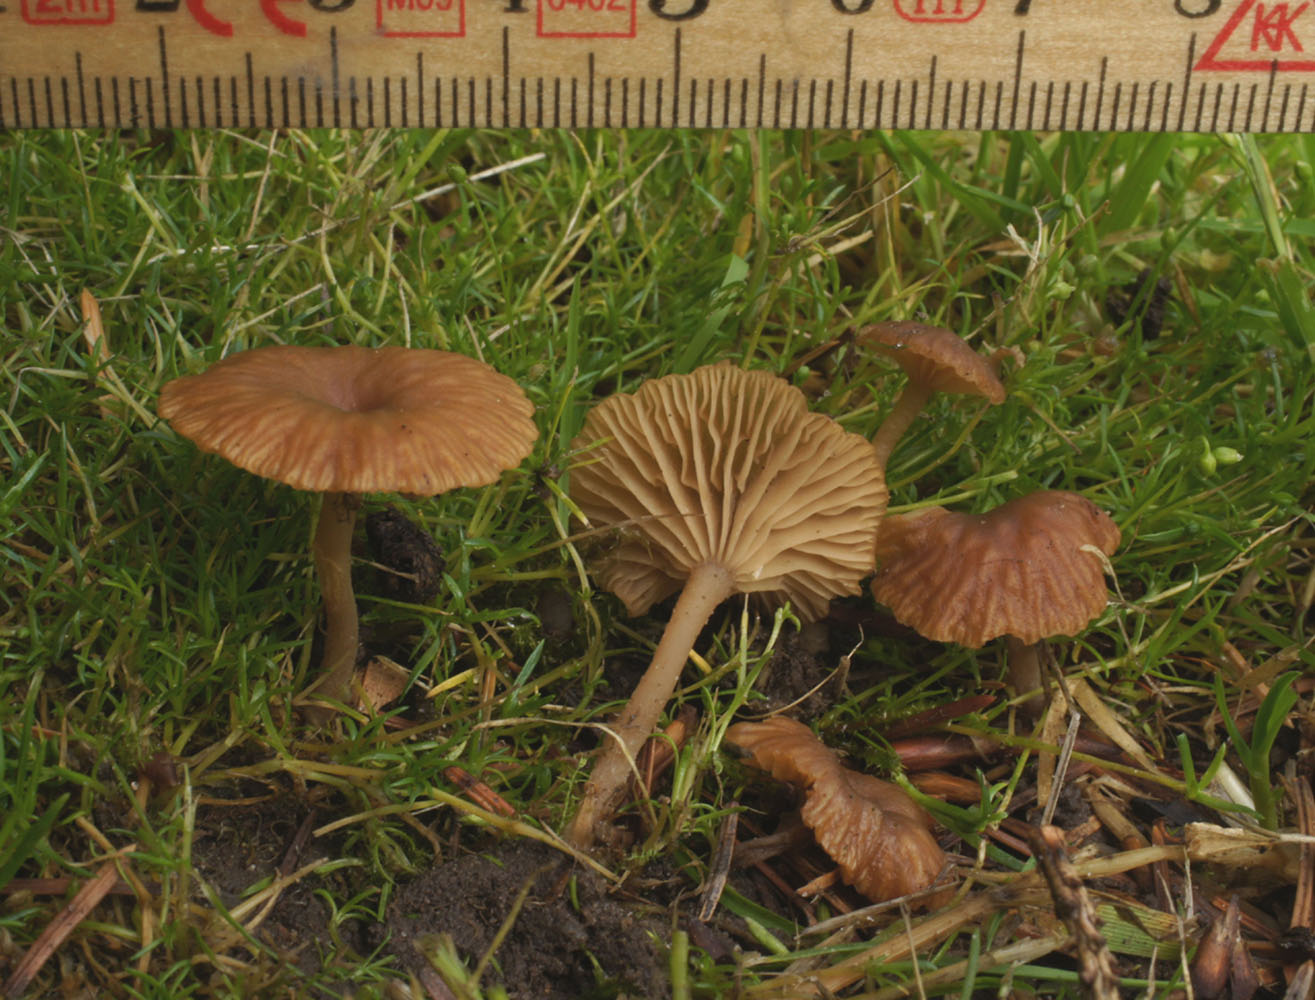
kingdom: Fungi
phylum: Basidiomycota
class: Agaricomycetes
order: Agaricales
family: Tricholomataceae
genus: Omphalina
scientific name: Omphalina pyxidata
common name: rødbrun navlehat
